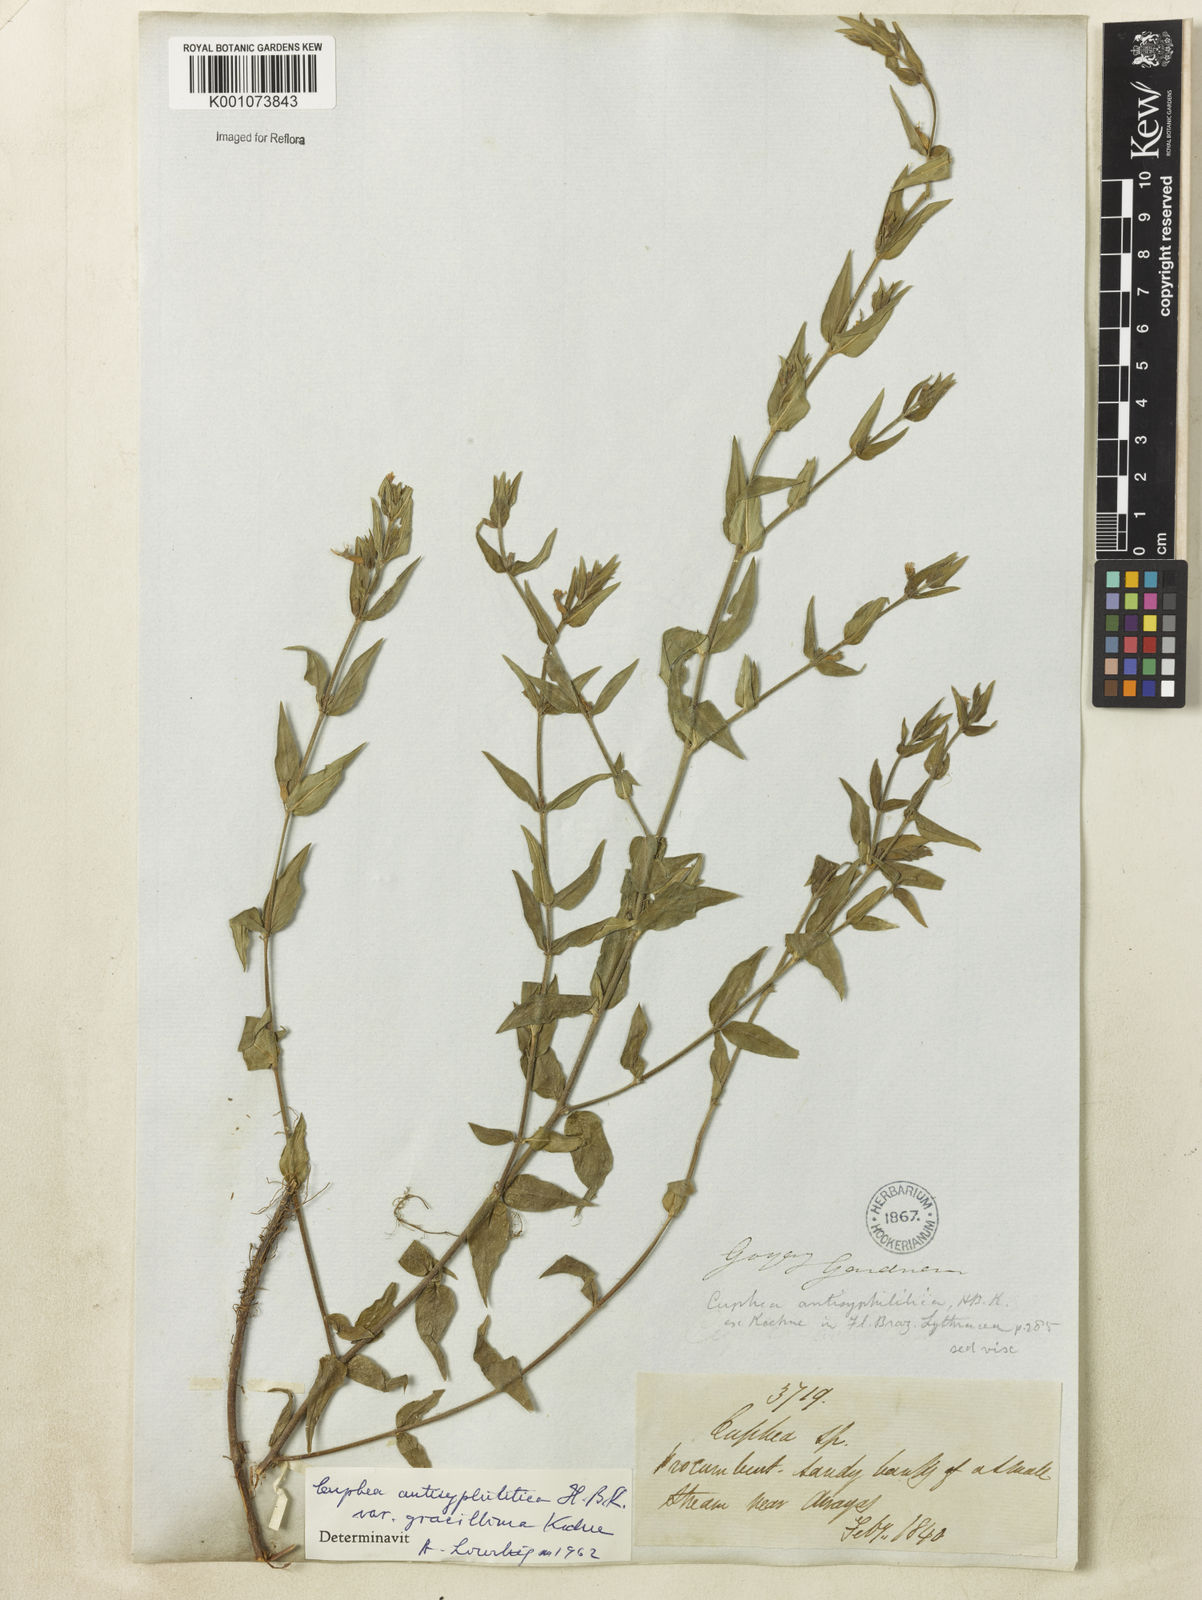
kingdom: Plantae
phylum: Tracheophyta
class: Magnoliopsida
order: Myrtales
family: Lythraceae
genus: Cuphea
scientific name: Cuphea antisyphilitica
